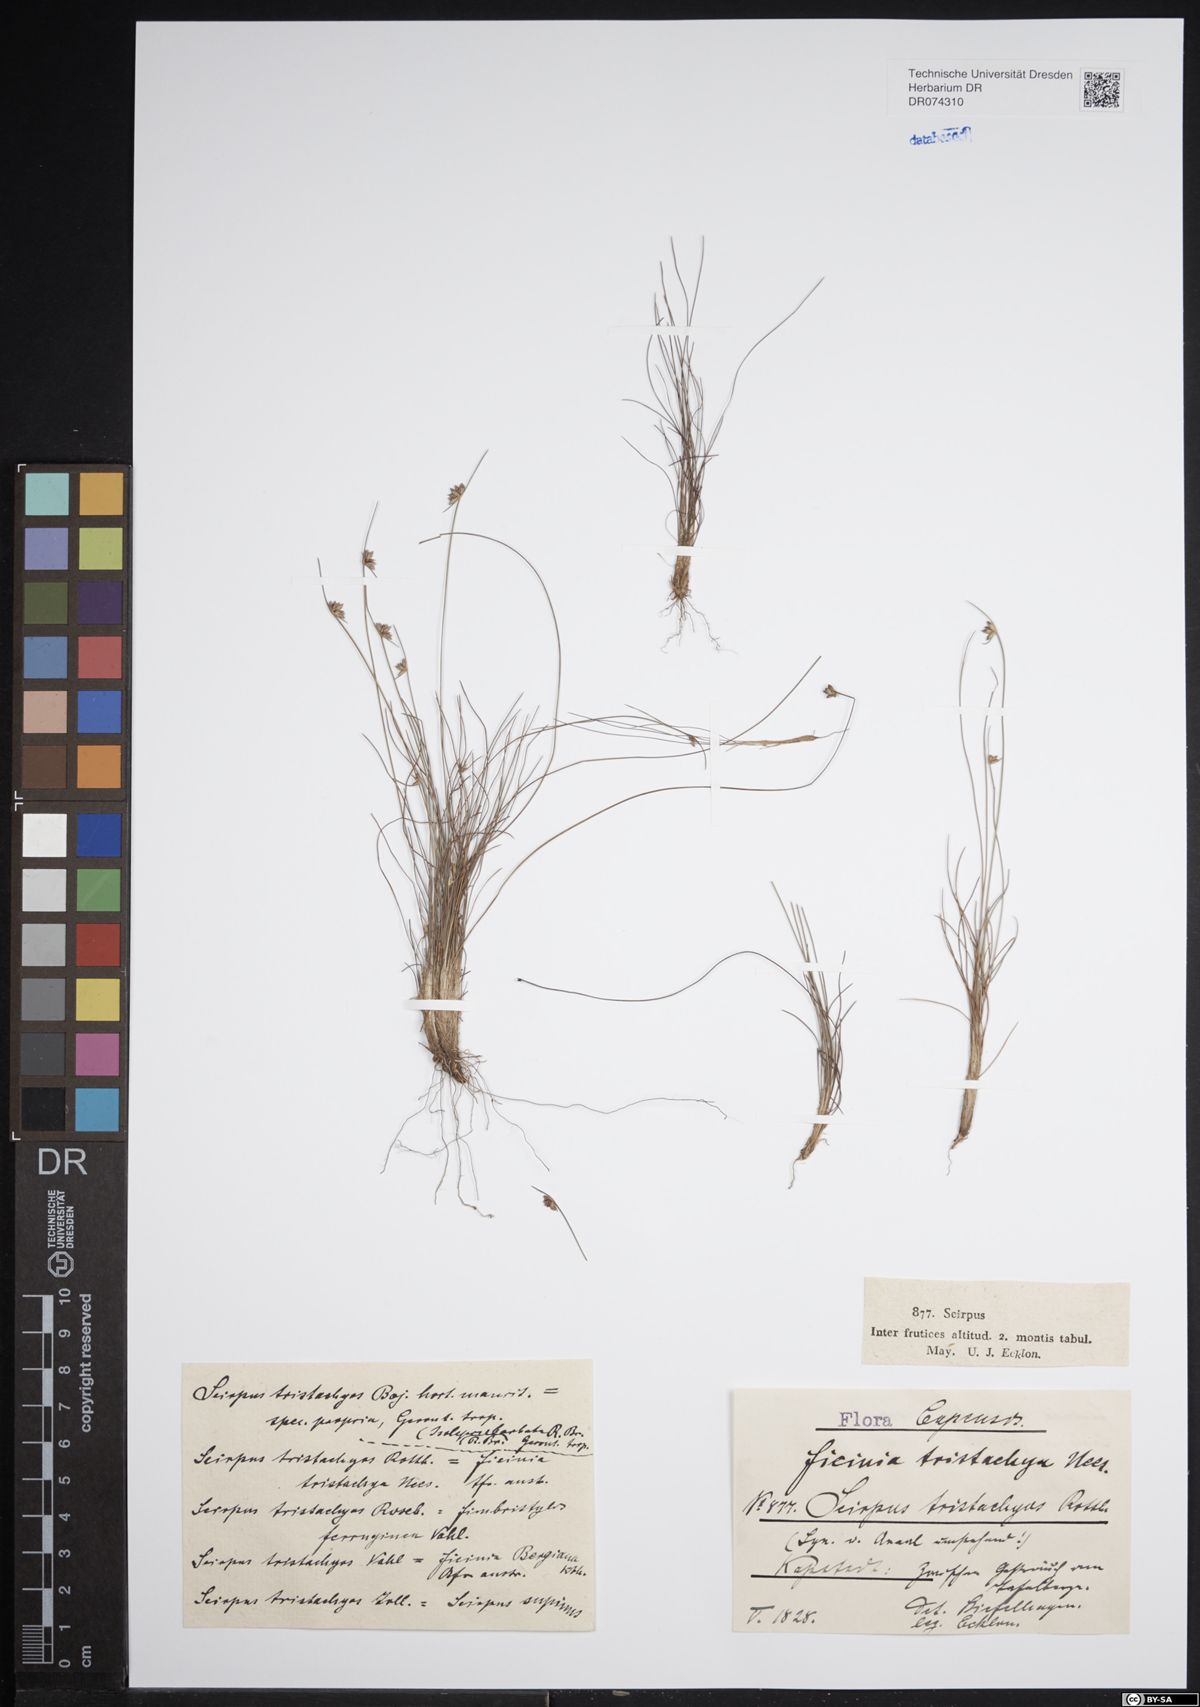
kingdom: Plantae
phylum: Tracheophyta
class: Liliopsida
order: Poales
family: Cyperaceae
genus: Ficinia
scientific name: Ficinia tristachya
